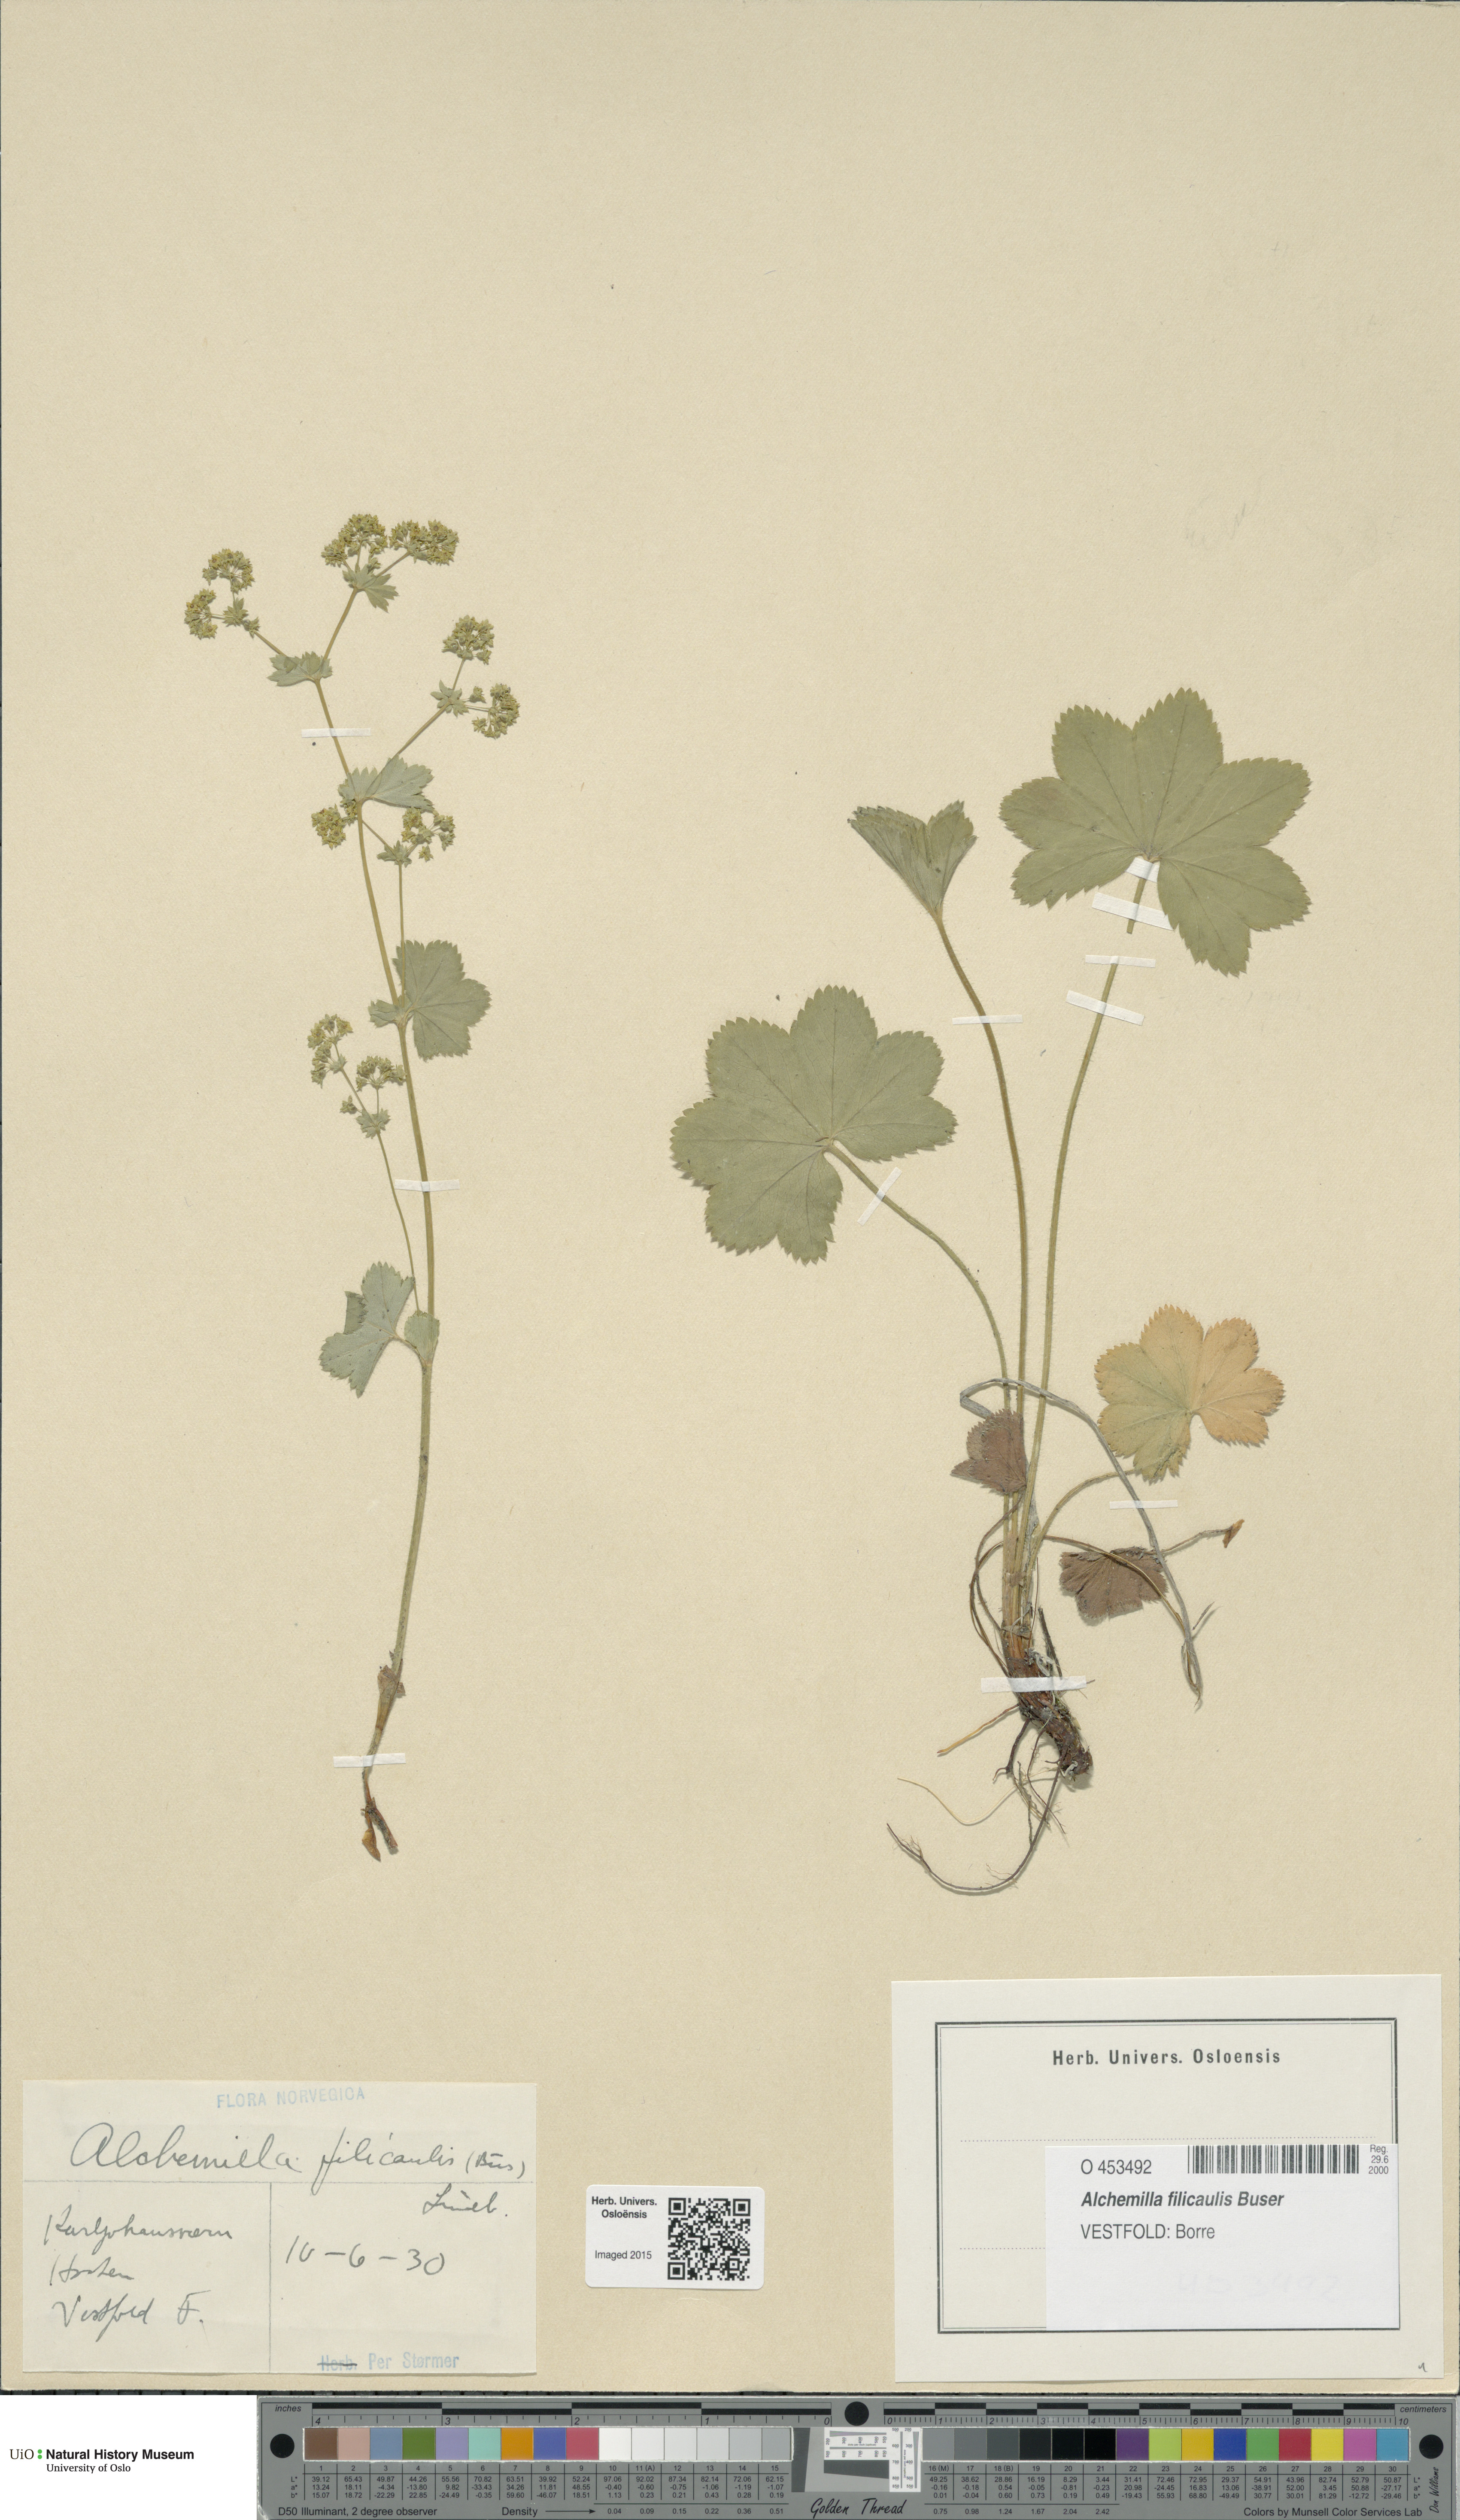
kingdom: Plantae
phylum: Tracheophyta
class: Magnoliopsida
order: Rosales
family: Rosaceae
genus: Alchemilla
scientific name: Alchemilla filicaulis
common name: Hairy lady's-mantle
